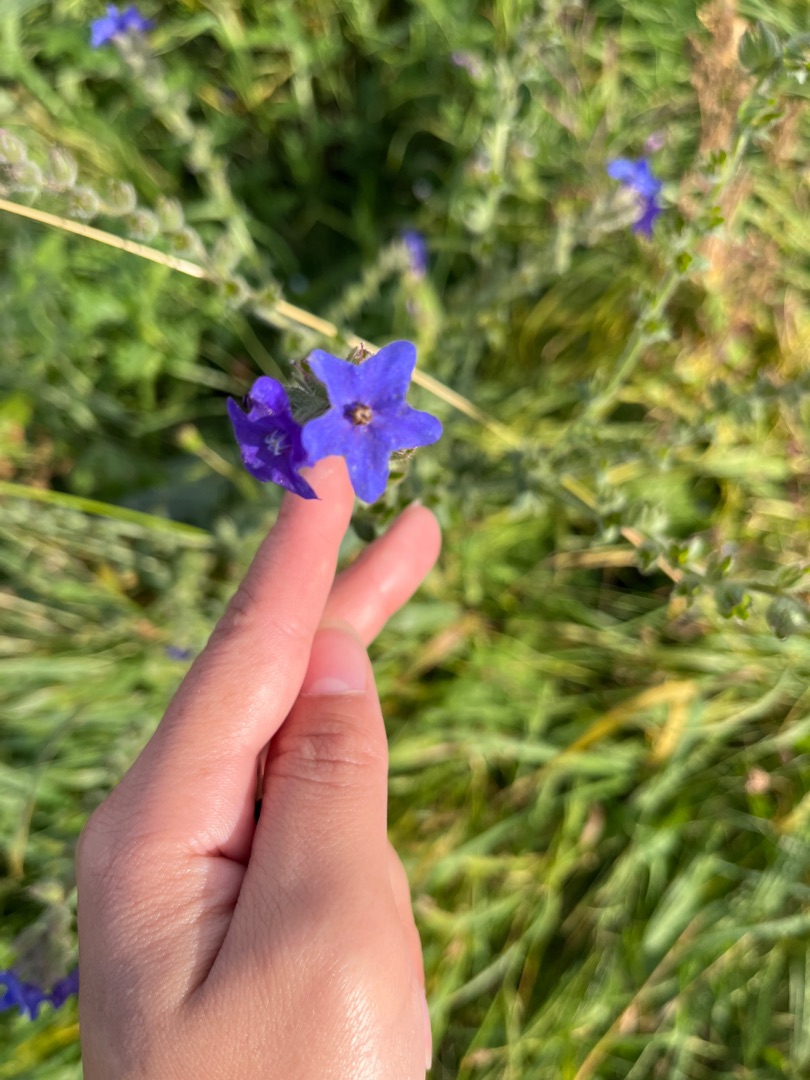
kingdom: Plantae
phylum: Tracheophyta
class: Magnoliopsida
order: Boraginales
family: Boraginaceae
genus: Anchusa
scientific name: Anchusa officinalis
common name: Læge-oksetunge
